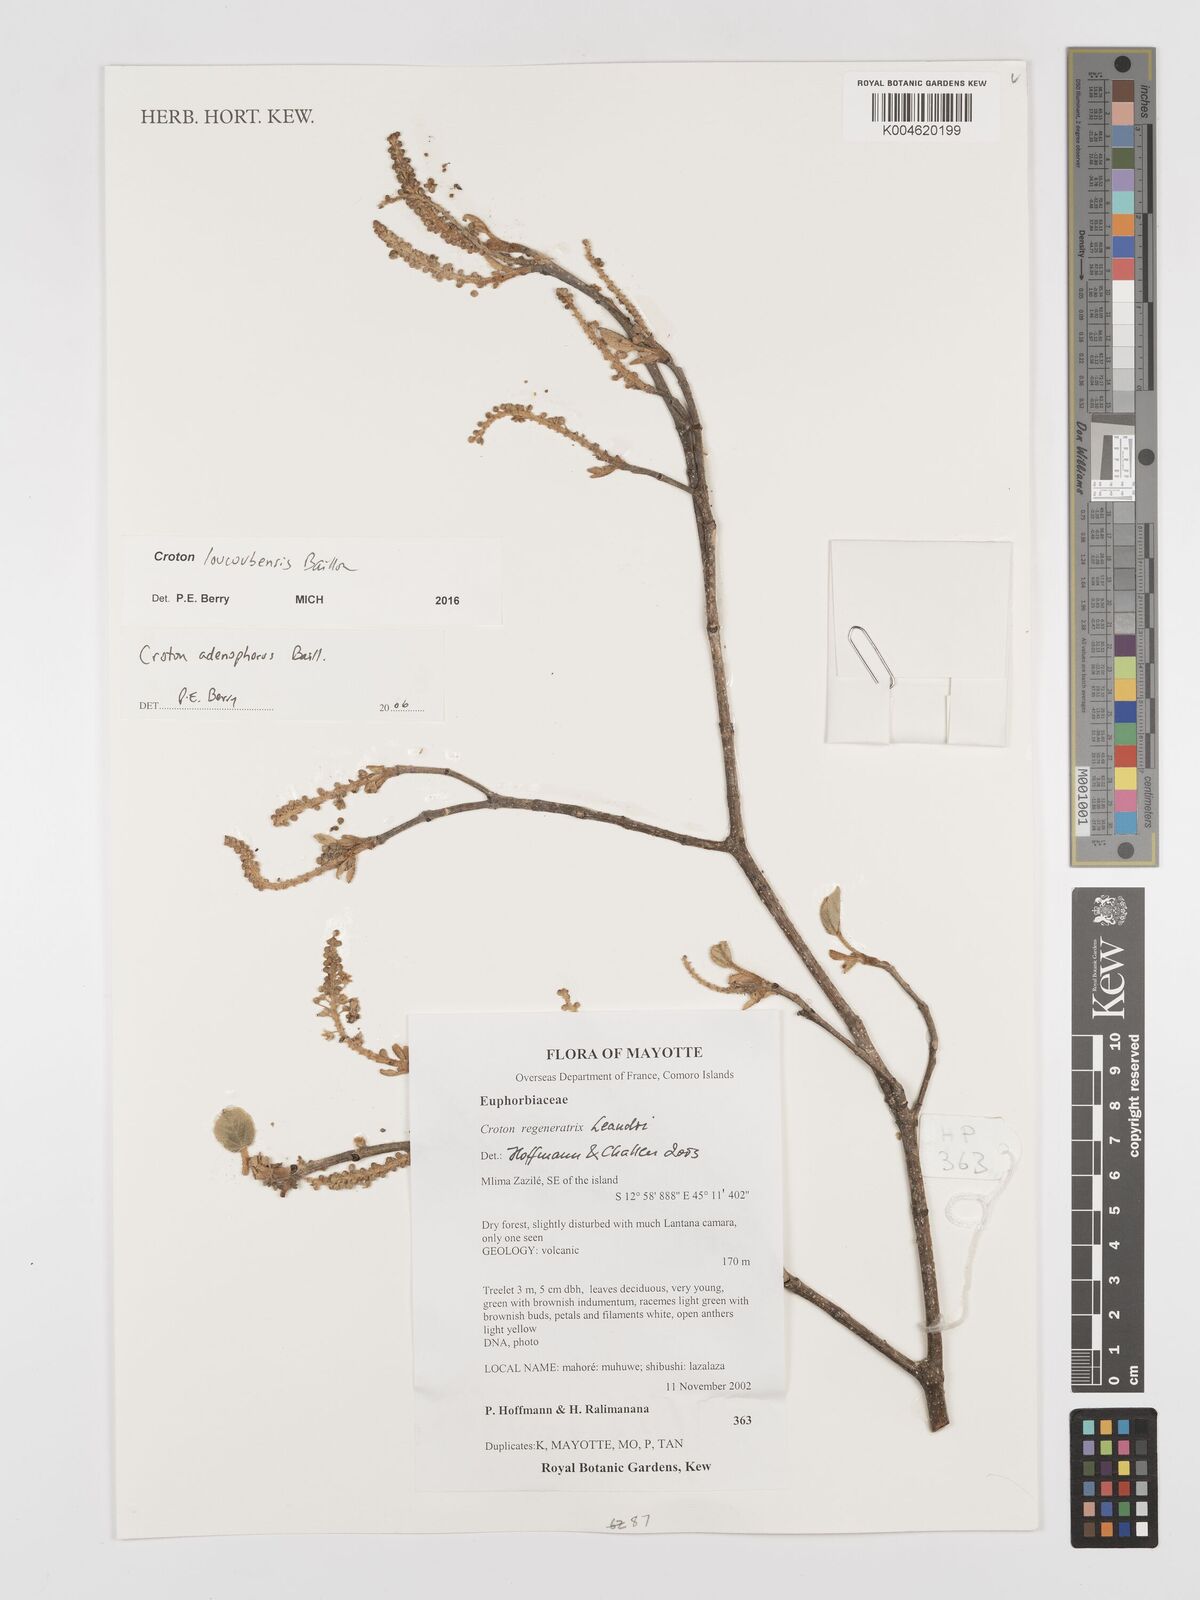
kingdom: Plantae
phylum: Tracheophyta
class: Magnoliopsida
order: Malpighiales
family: Euphorbiaceae
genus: Croton
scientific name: Croton loucoubensis
